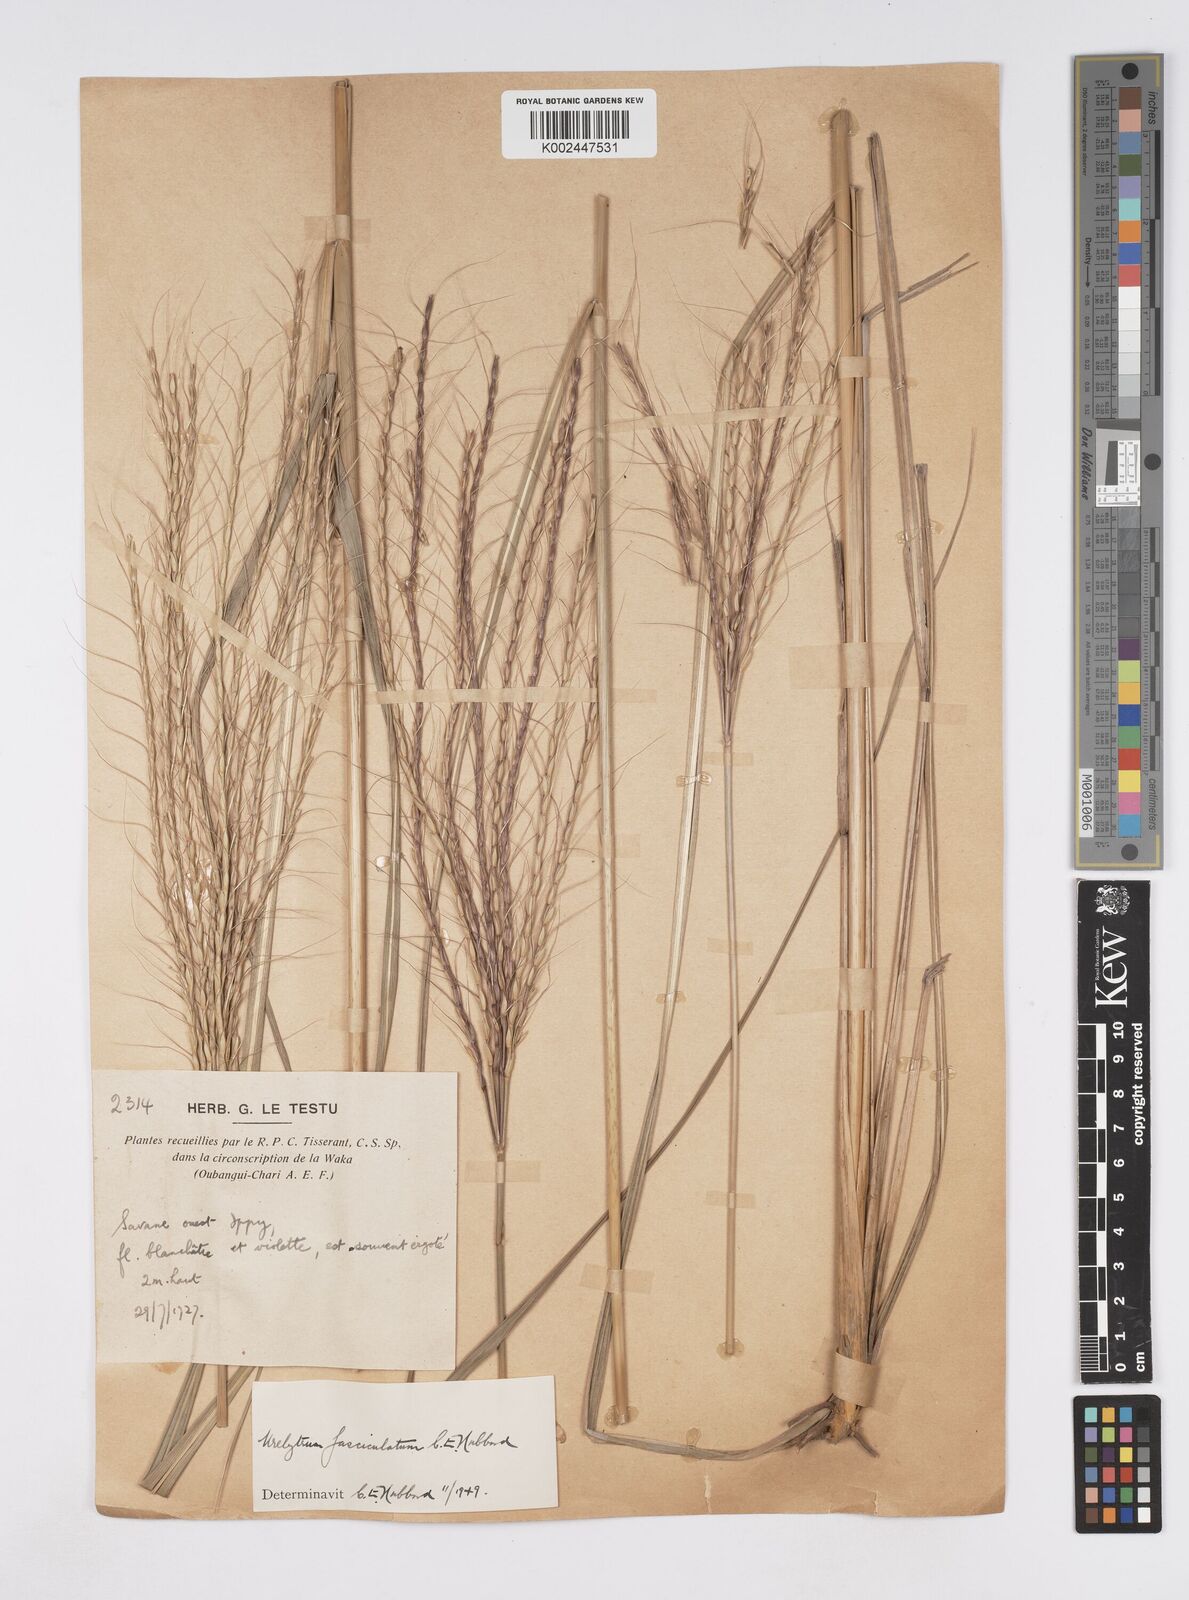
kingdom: Plantae
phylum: Tracheophyta
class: Liliopsida
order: Poales
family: Poaceae
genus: Urelytrum
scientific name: Urelytrum digitatum
